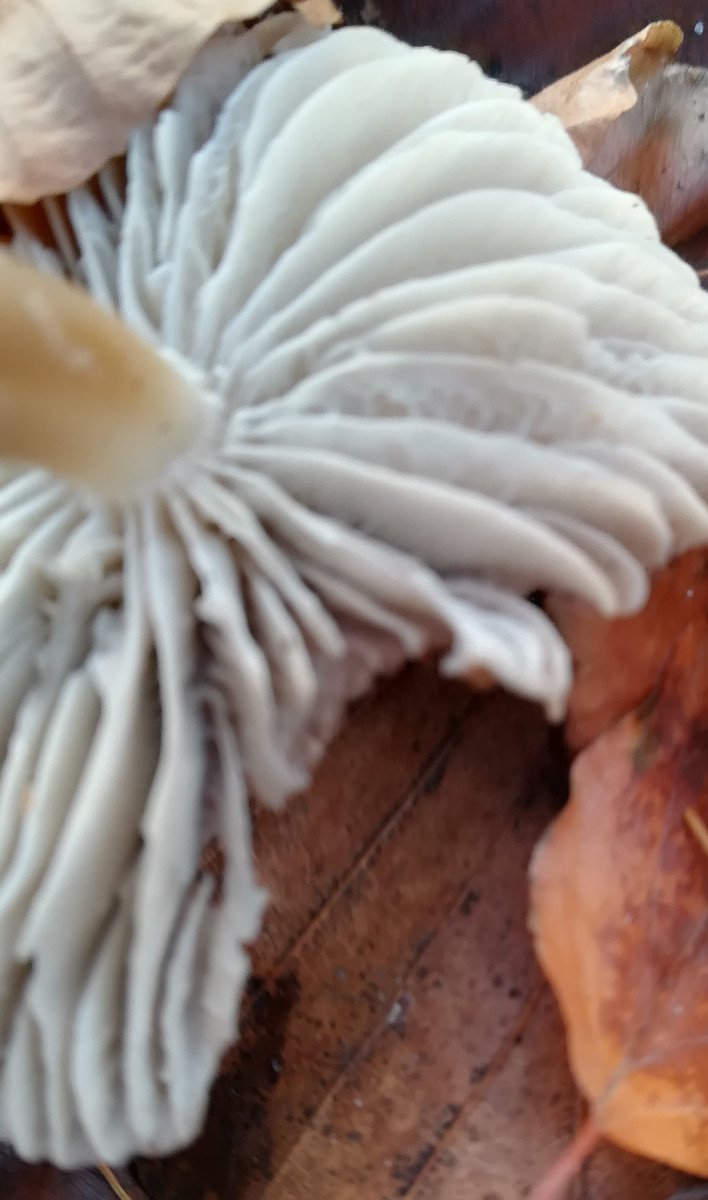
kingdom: Fungi
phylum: Basidiomycota
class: Agaricomycetes
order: Agaricales
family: Mycenaceae
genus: Mycena
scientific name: Mycena galericulata
